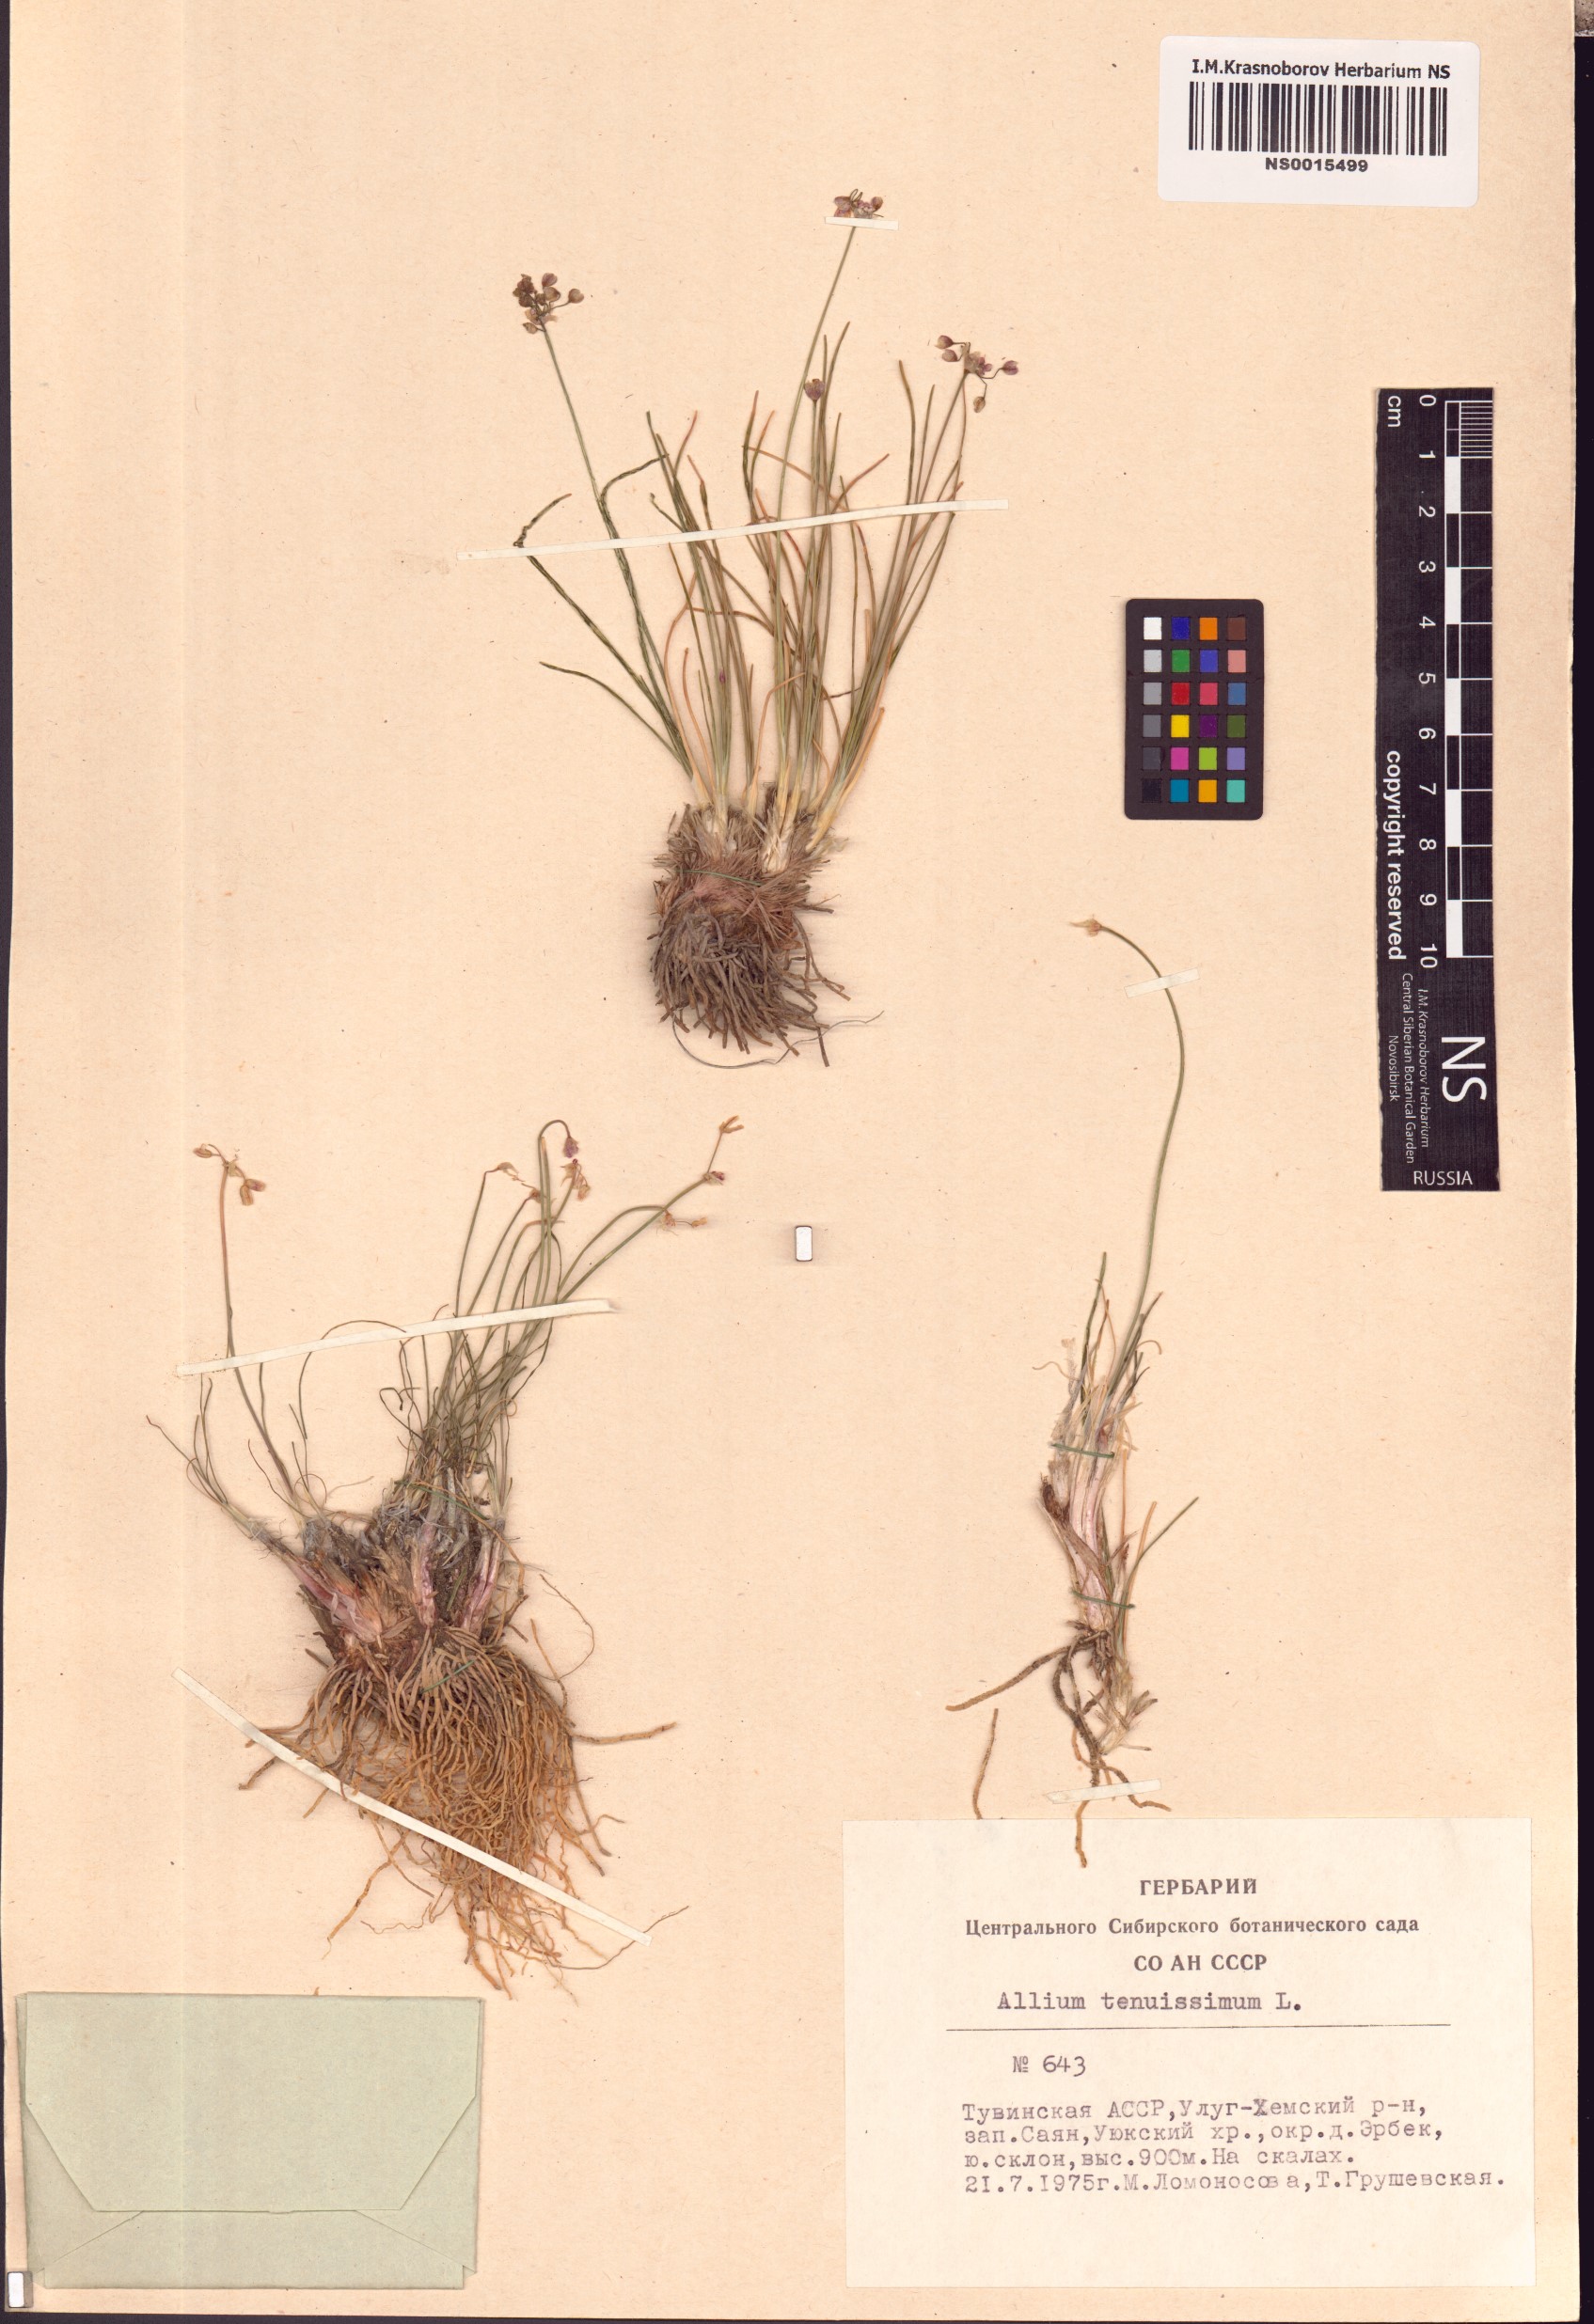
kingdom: Plantae
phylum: Tracheophyta
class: Liliopsida
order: Asparagales
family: Amaryllidaceae
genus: Allium
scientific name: Allium tenuissimum
